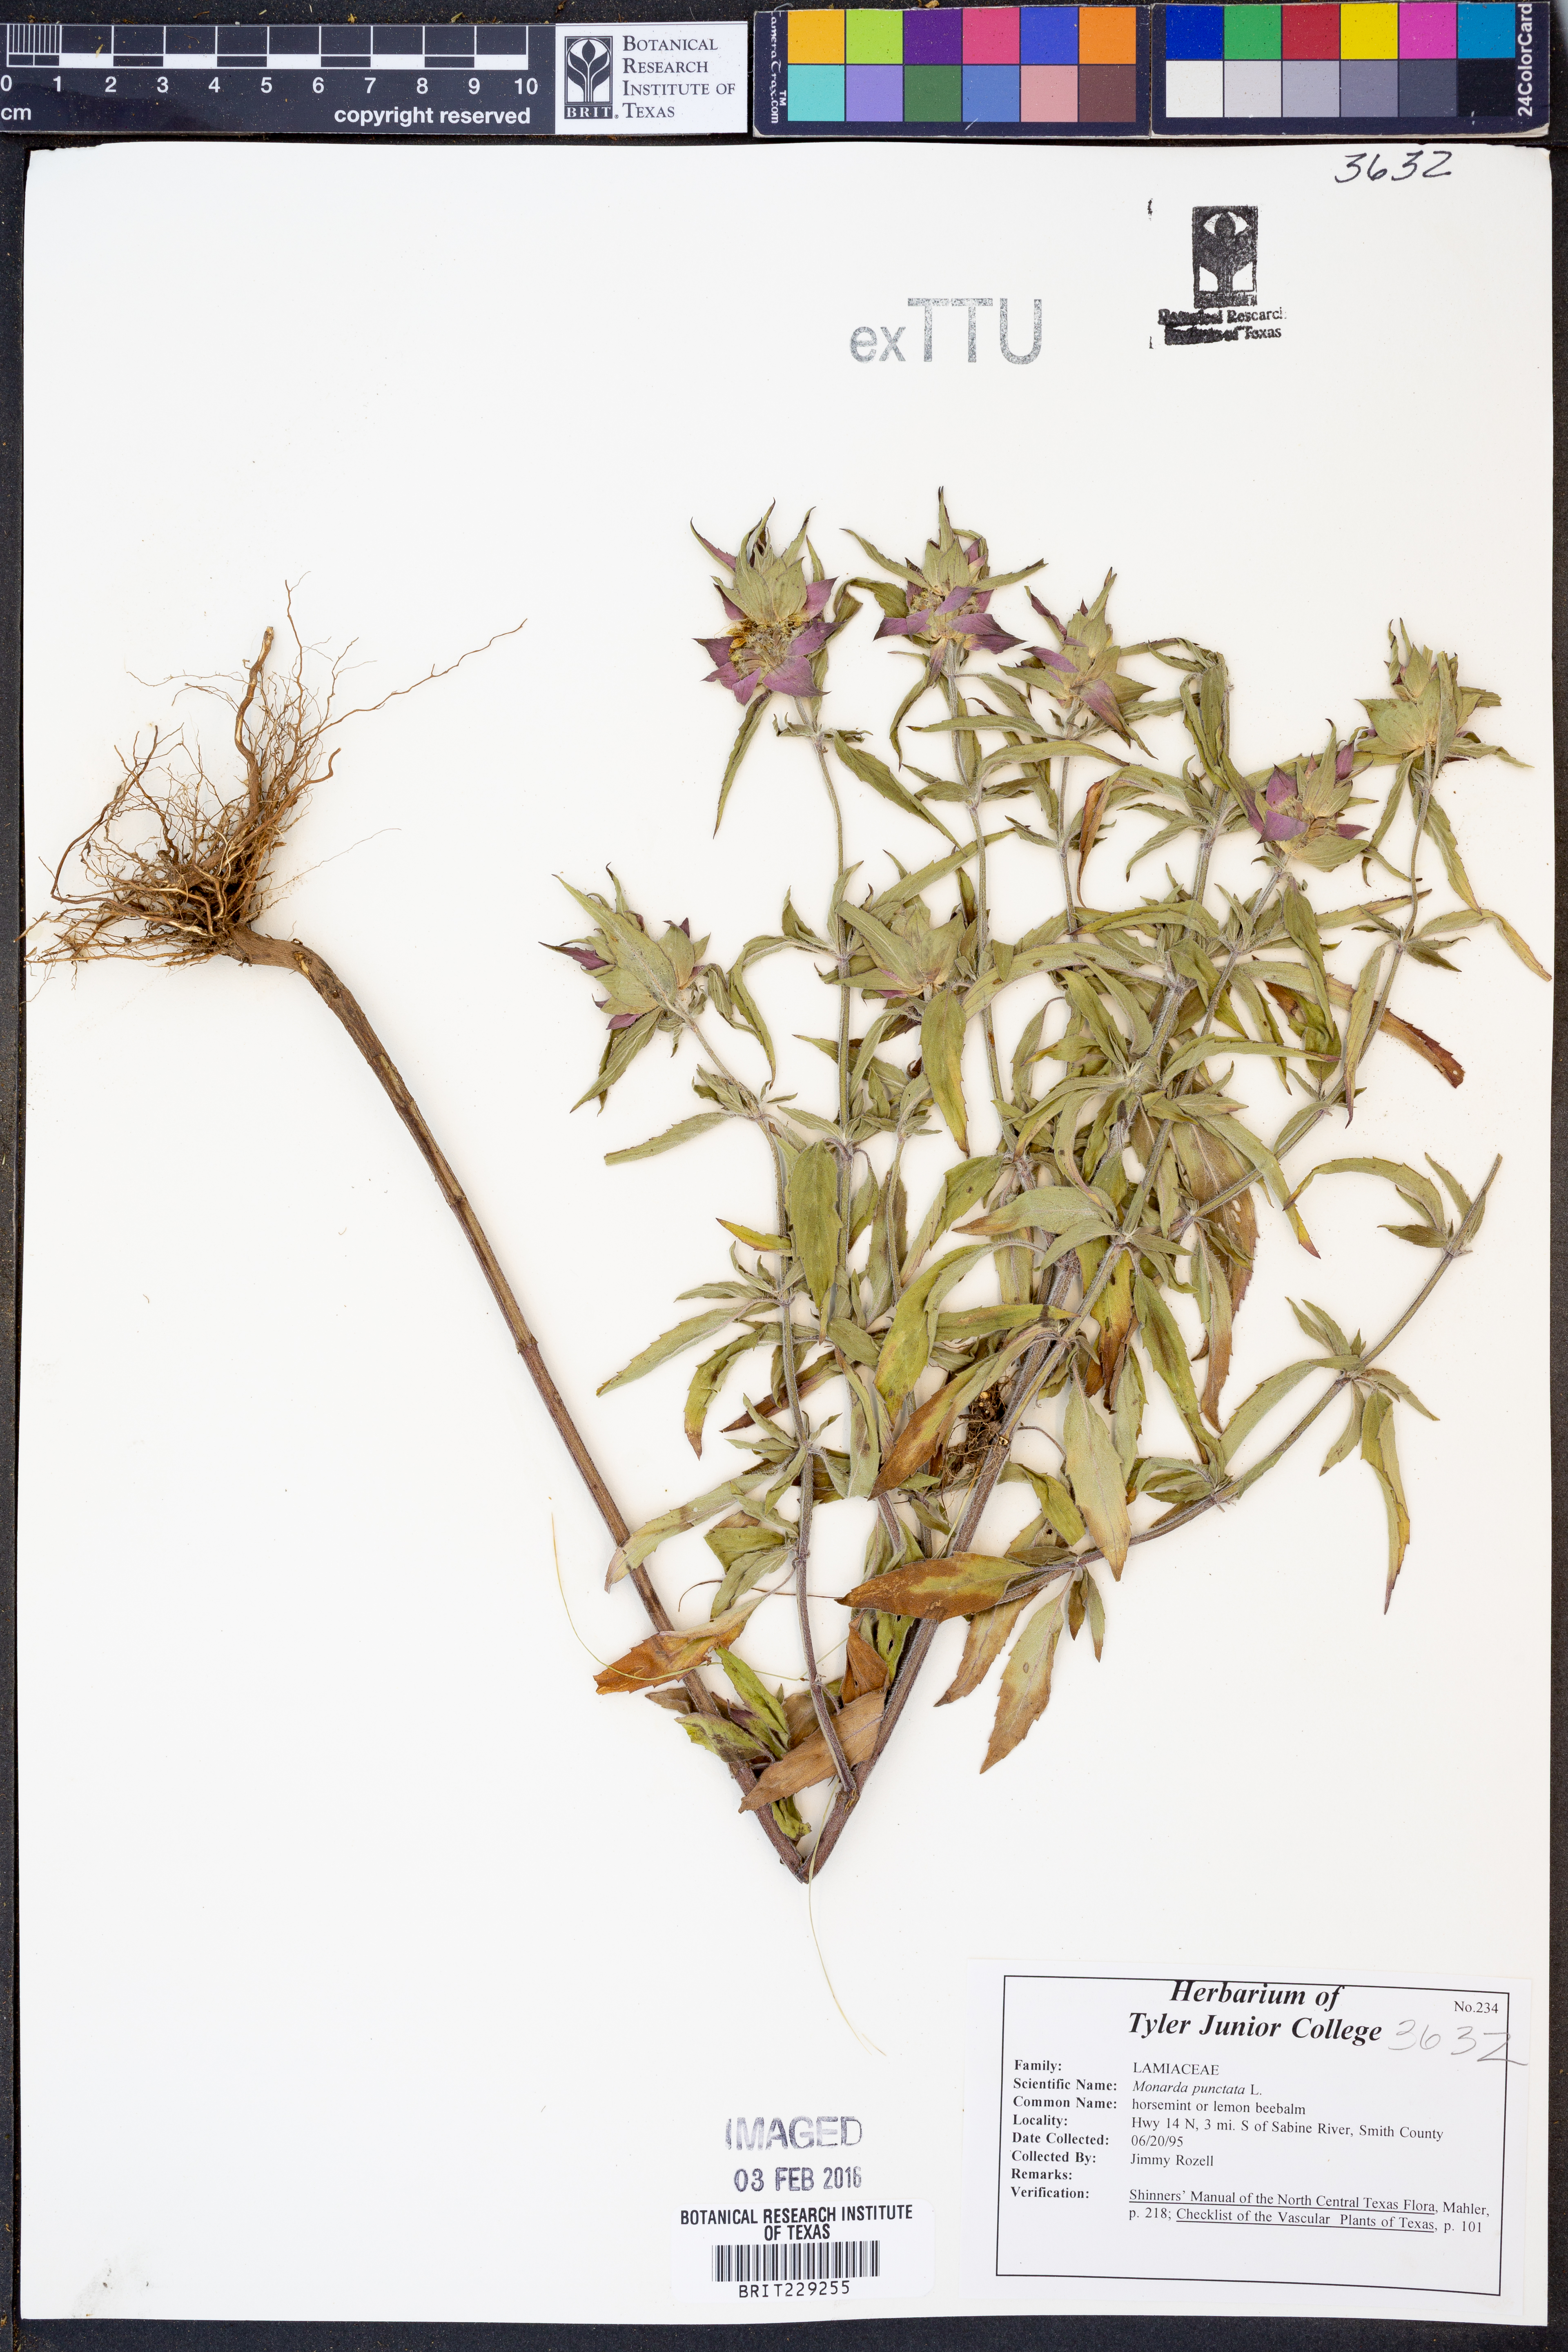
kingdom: Plantae
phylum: Tracheophyta
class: Magnoliopsida
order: Lamiales
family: Lamiaceae
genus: Monarda
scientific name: Monarda punctata
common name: Dotted monarda
